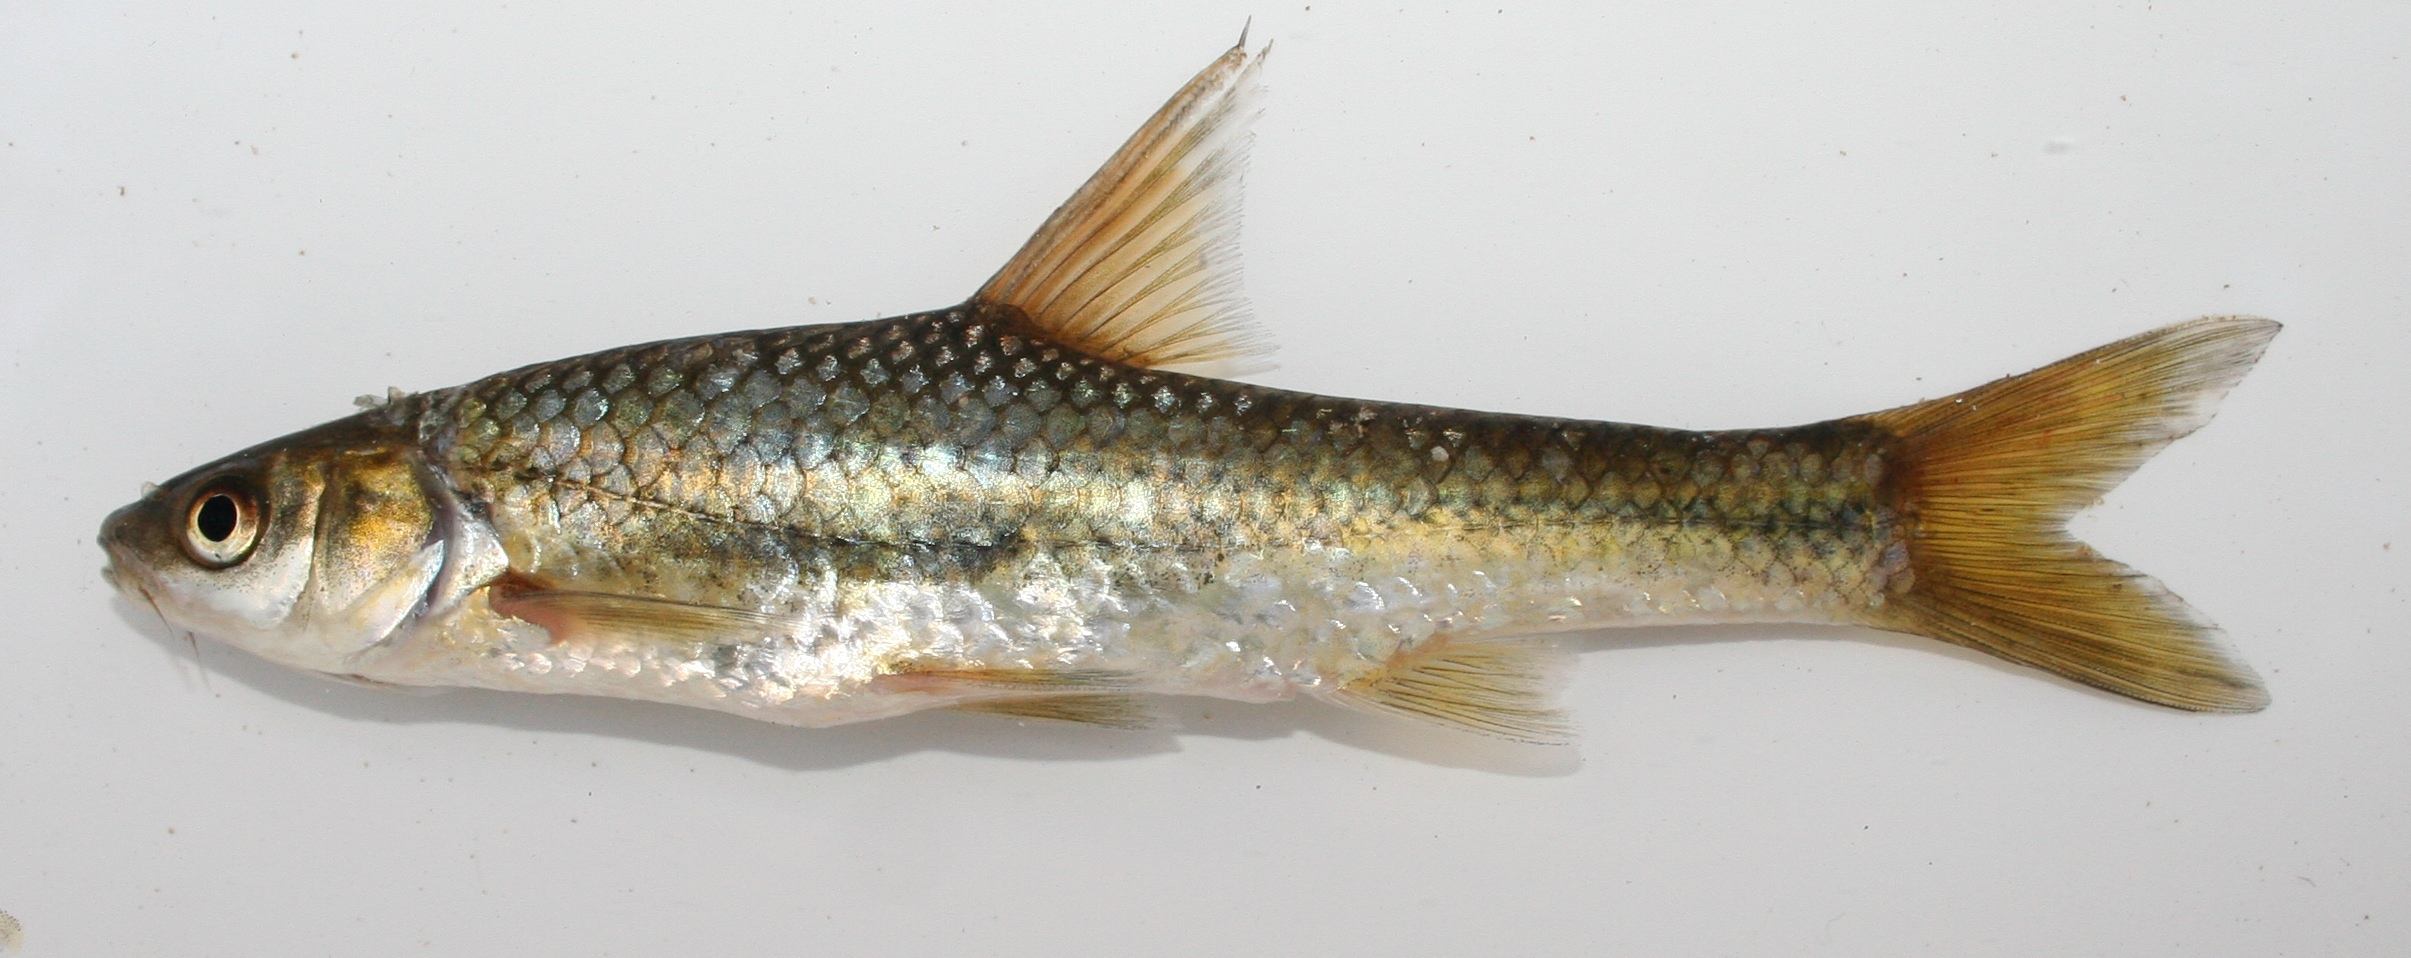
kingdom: Animalia
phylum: Chordata
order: Cypriniformes
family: Cyprinidae
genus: Enteromius
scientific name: Enteromius paludinosus
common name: Straightfin barb
